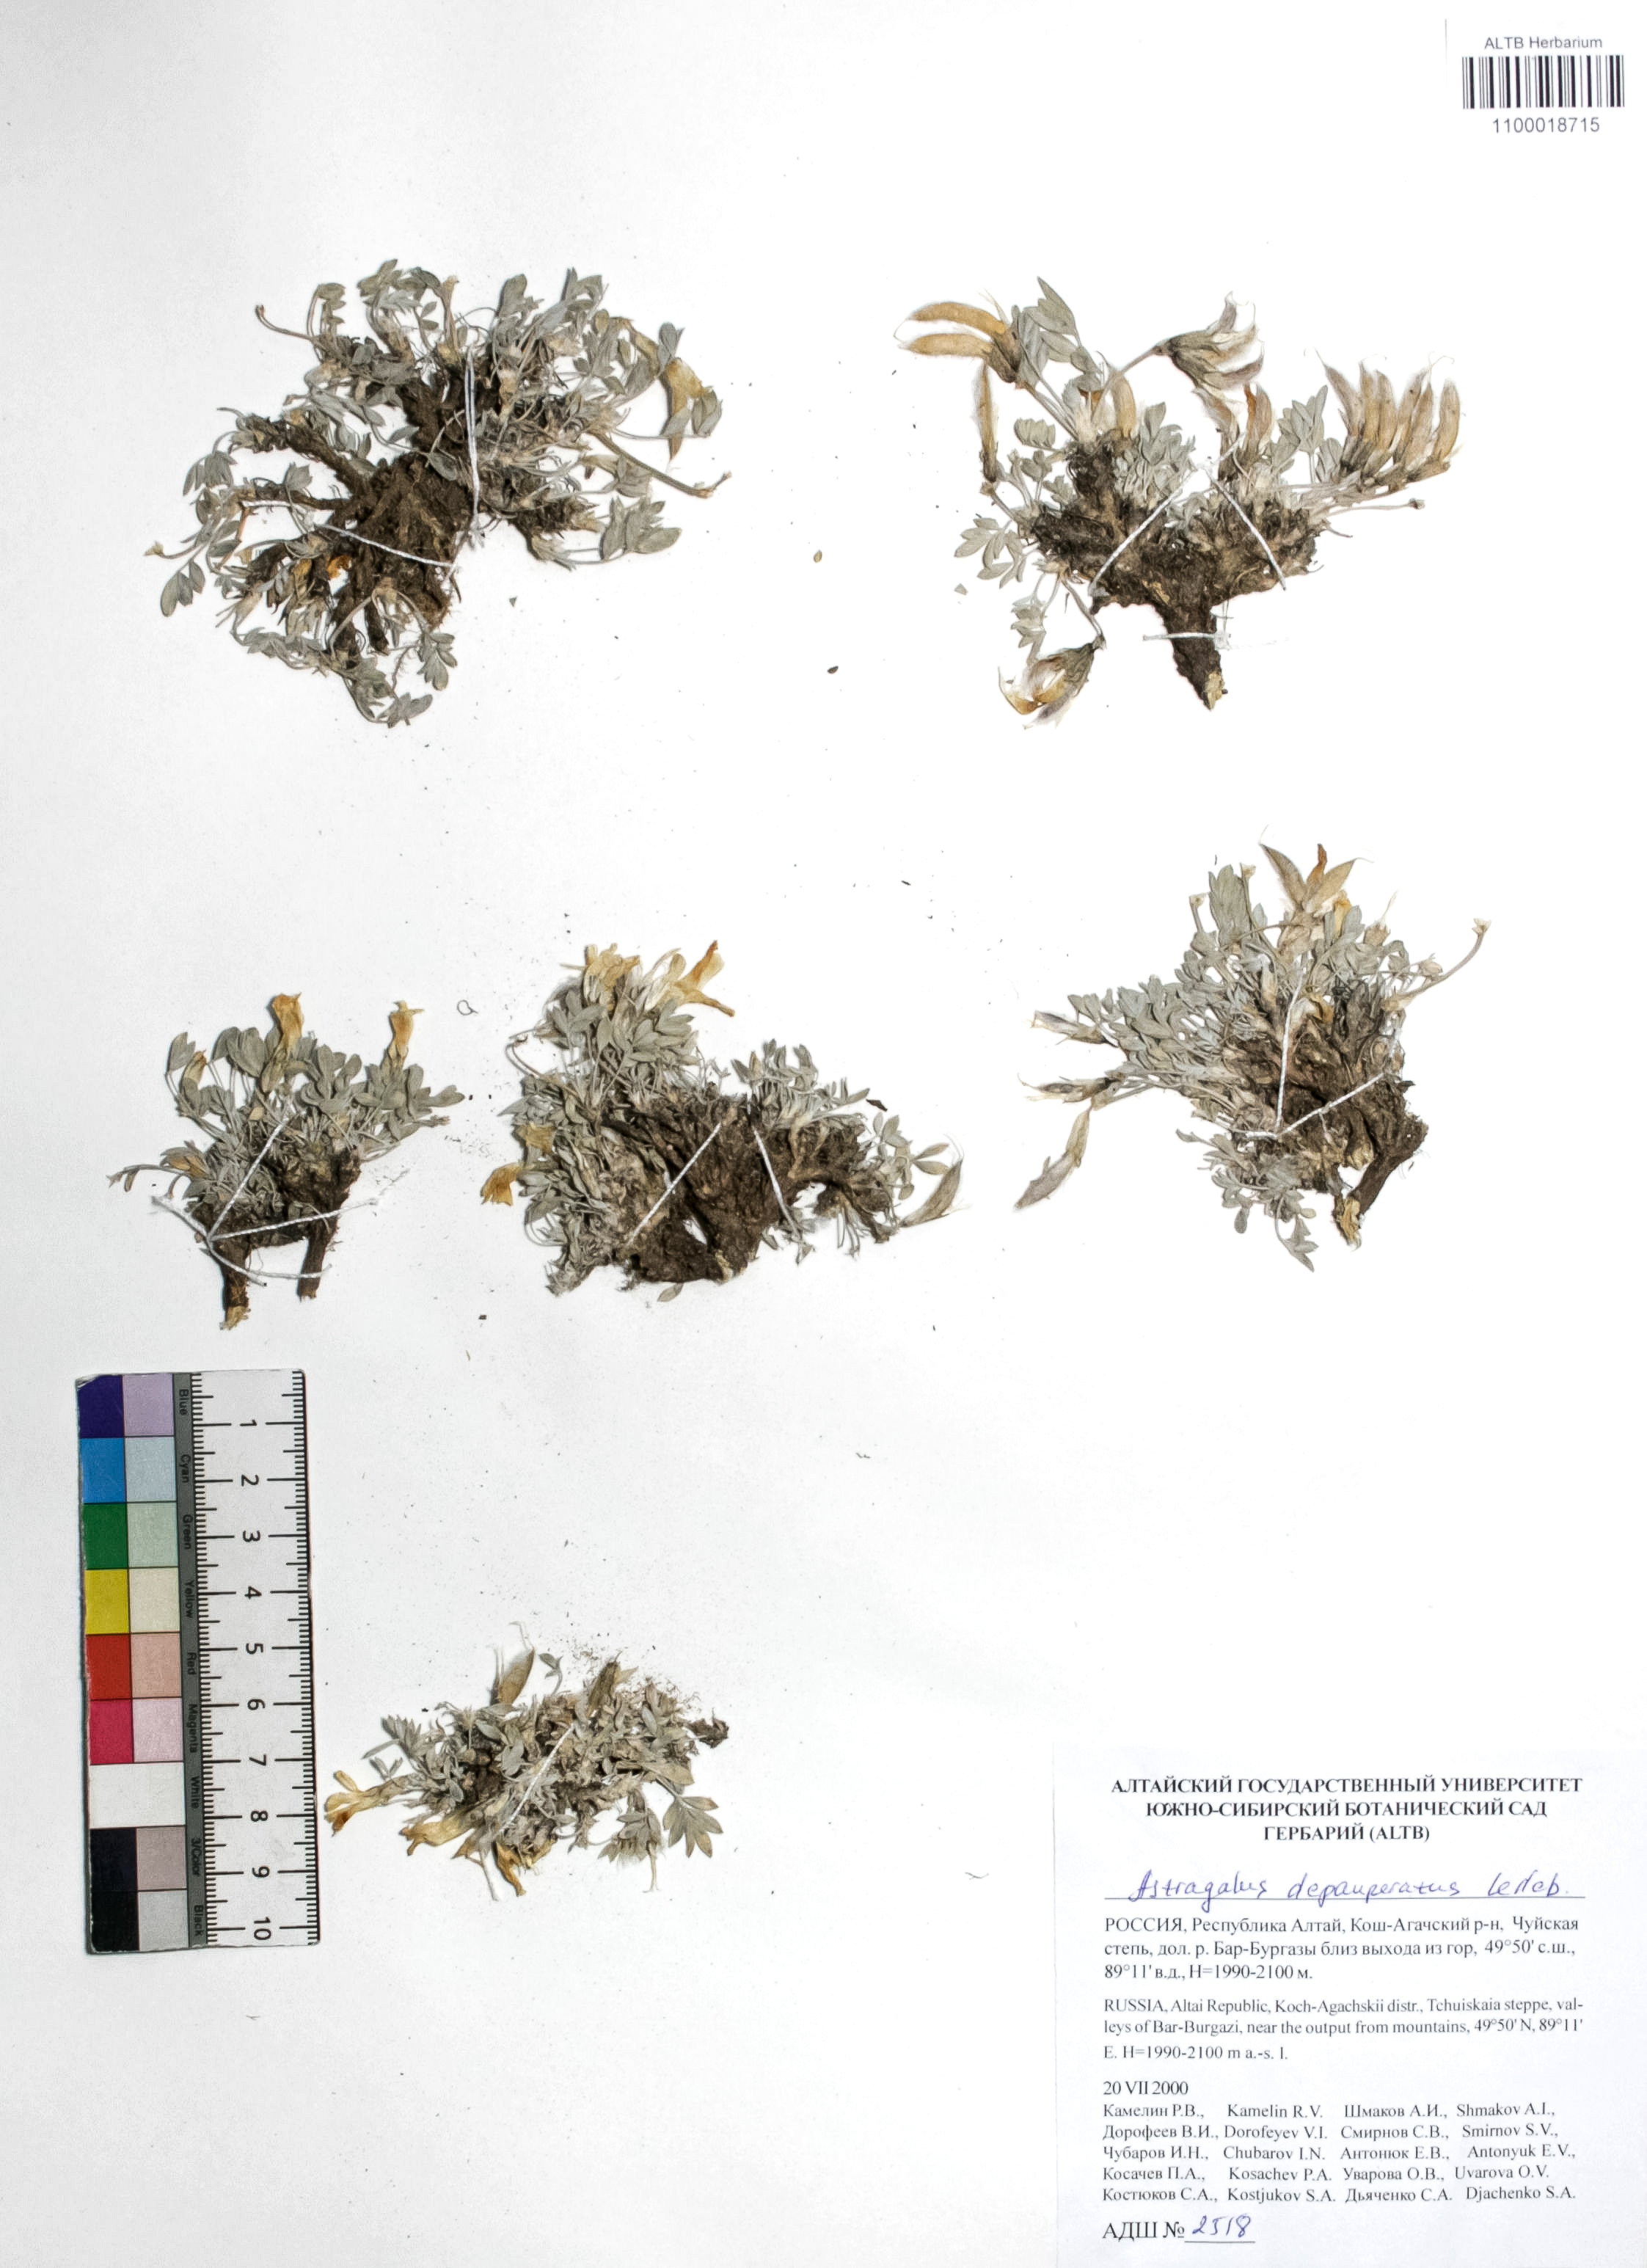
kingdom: Plantae
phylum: Tracheophyta
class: Magnoliopsida
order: Fabales
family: Fabaceae
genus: Astragalus
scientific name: Astragalus depauperatus
